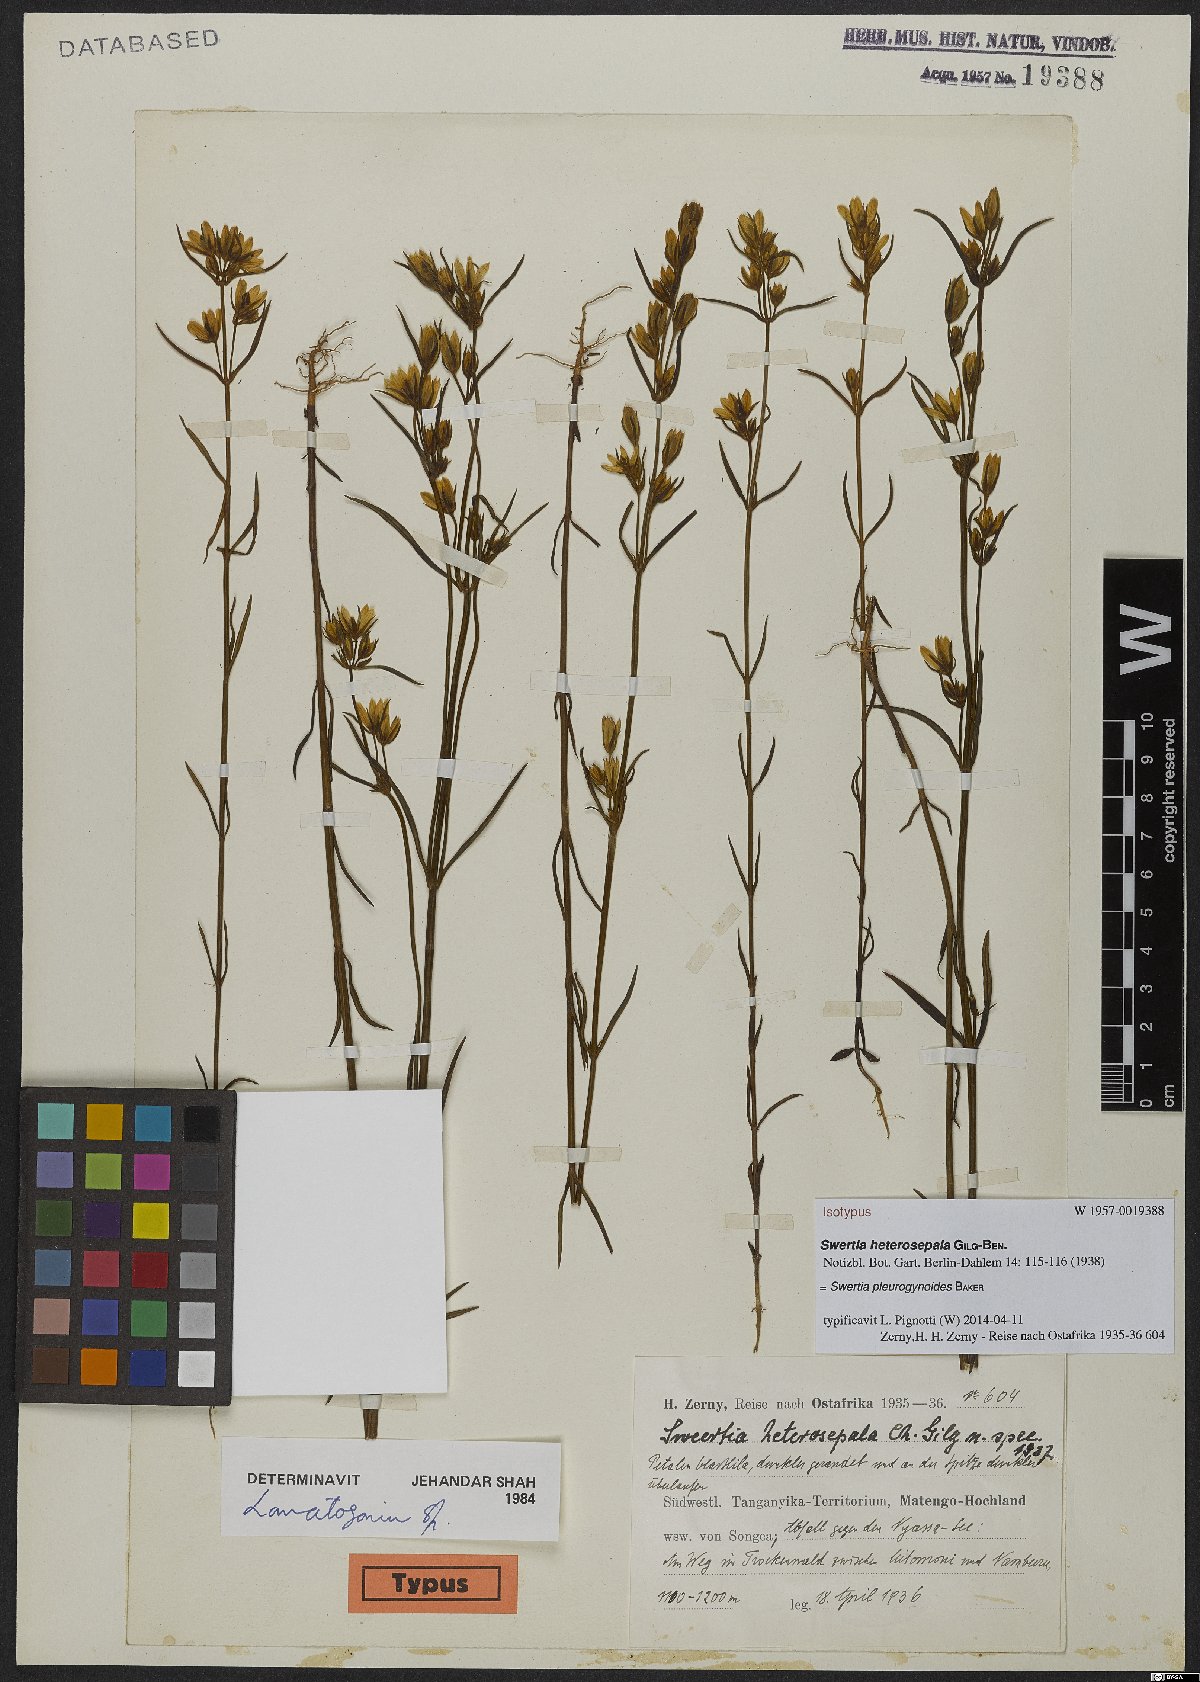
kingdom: Plantae
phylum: Tracheophyta
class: Magnoliopsida
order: Gentianales
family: Gentianaceae
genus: Lomatogonium
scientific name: Lomatogonium pleurogynoides
